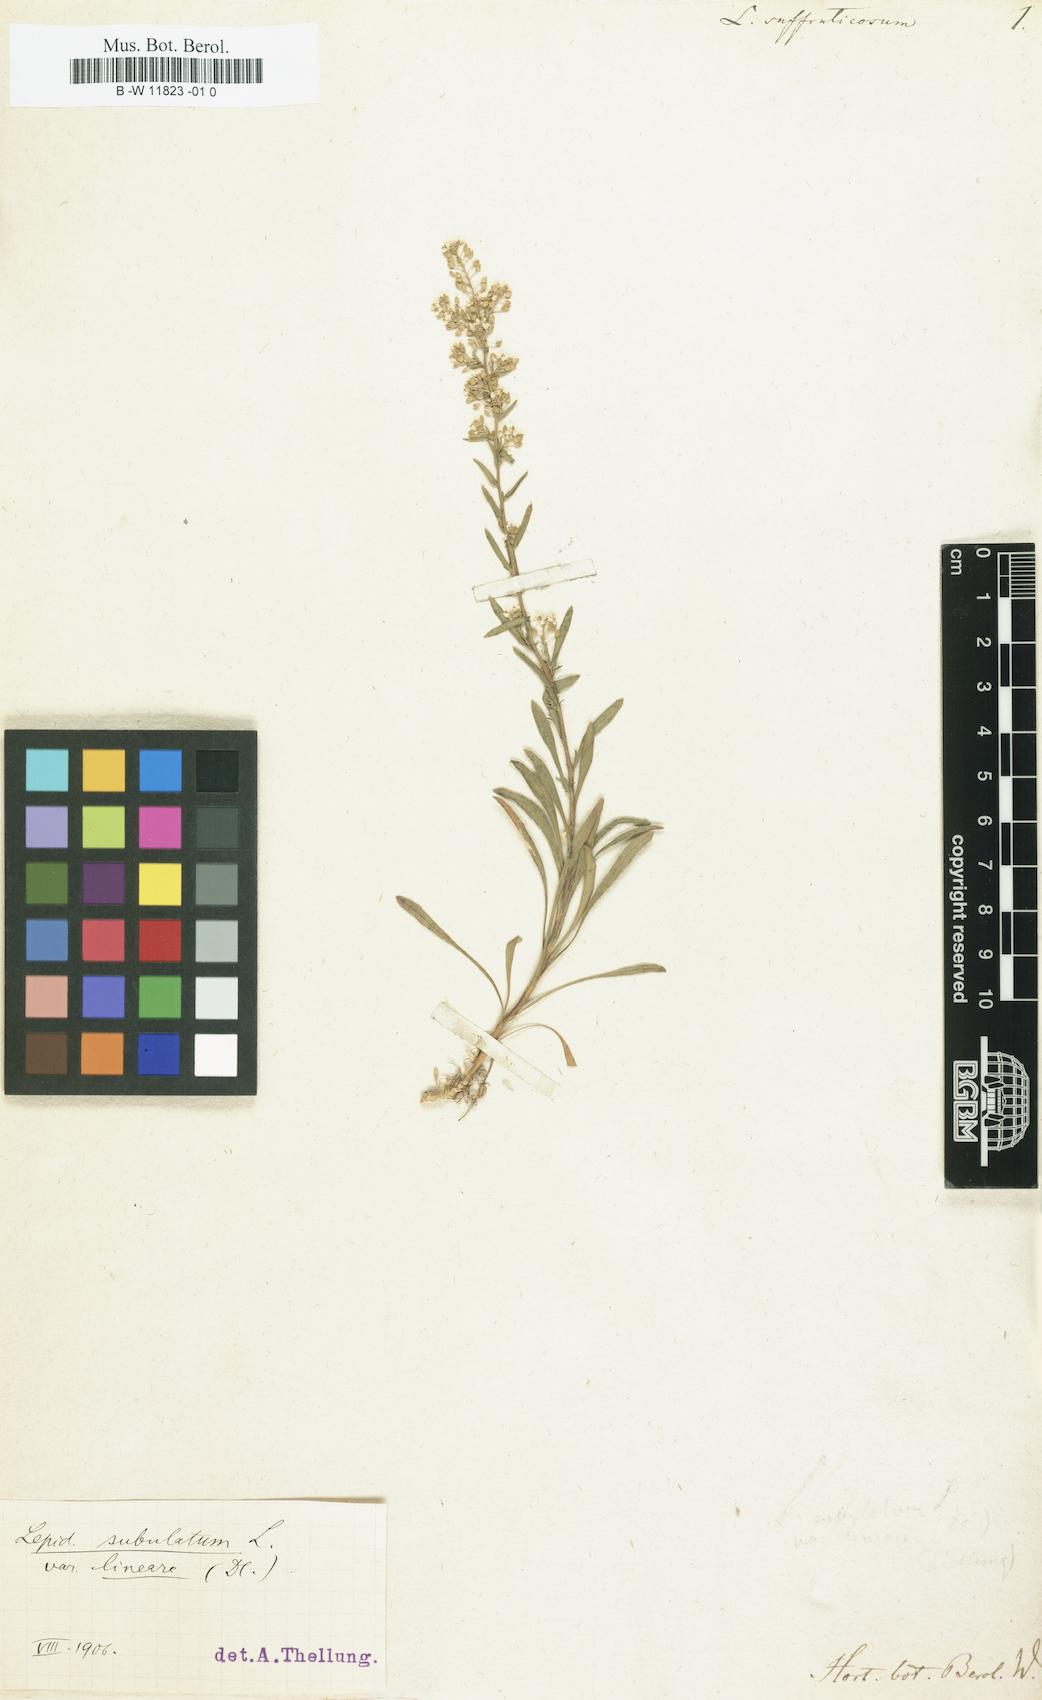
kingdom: Plantae
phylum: Tracheophyta
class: Magnoliopsida
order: Brassicales
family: Brassicaceae
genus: Lepidium
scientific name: Lepidium
